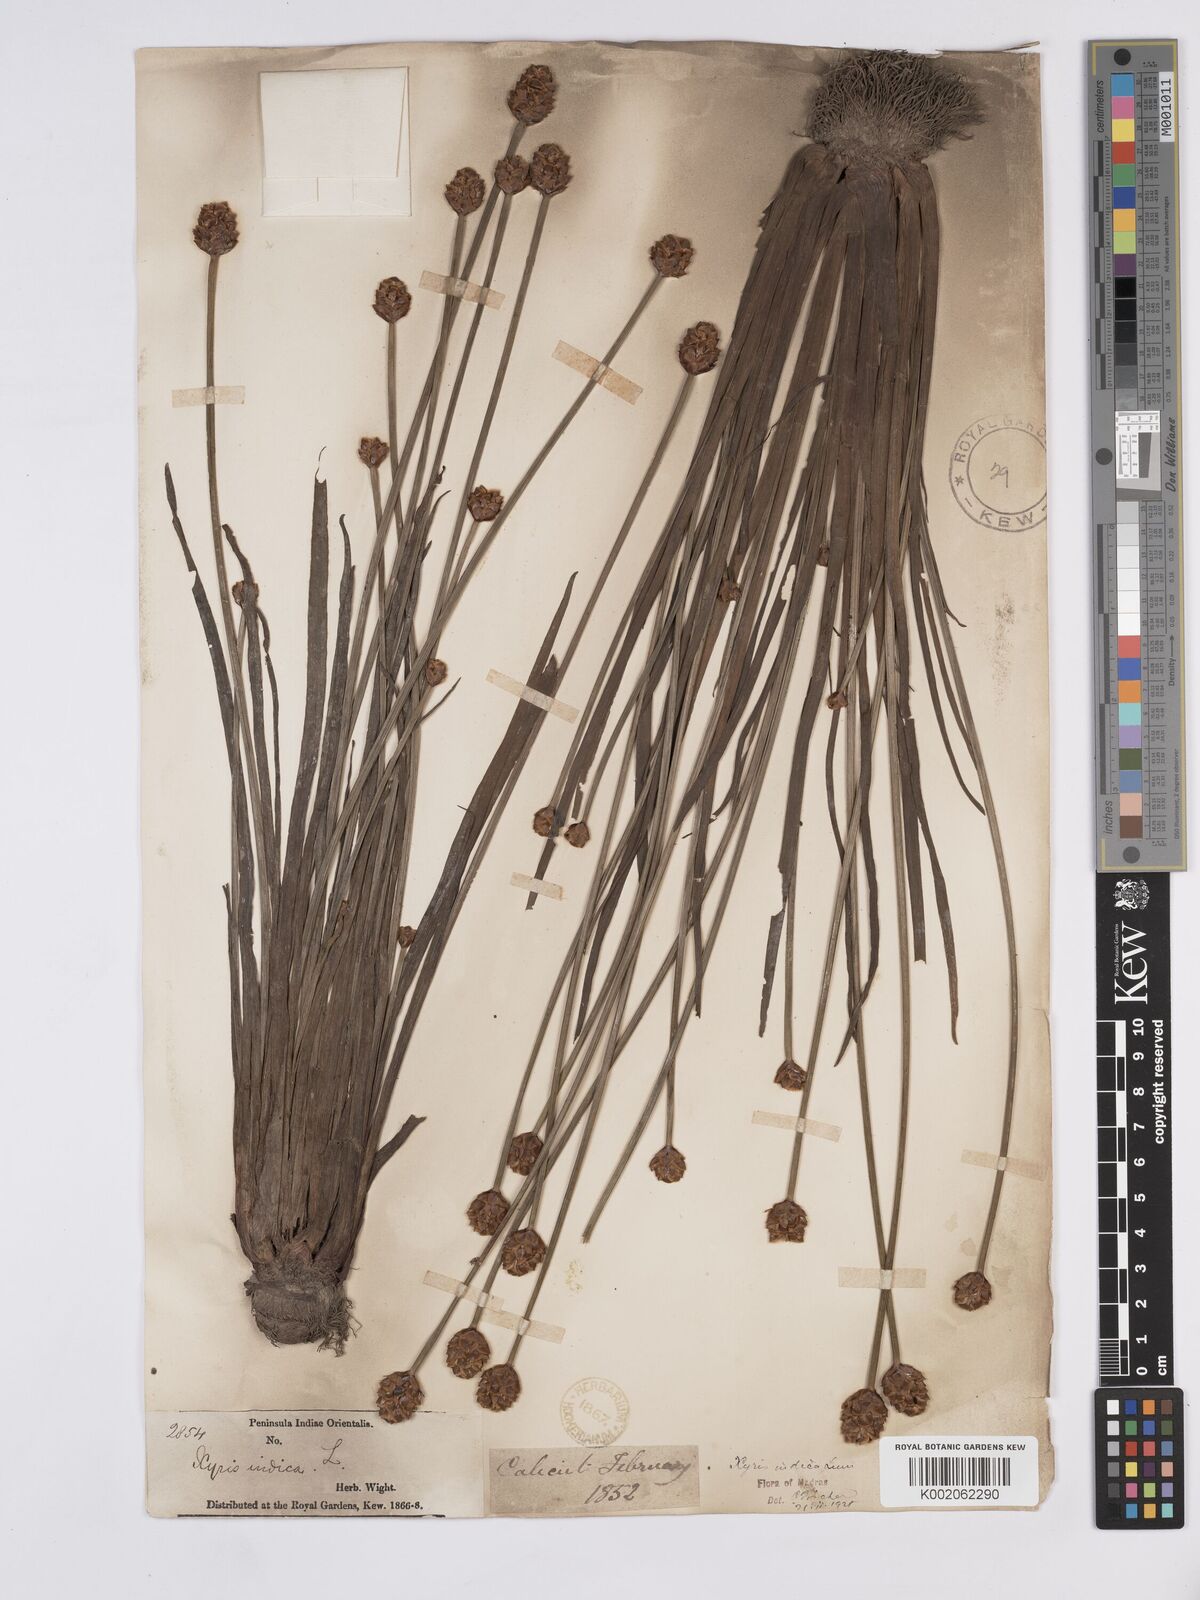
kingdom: Plantae
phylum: Tracheophyta
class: Liliopsida
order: Poales
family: Xyridaceae
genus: Xyris
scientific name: Xyris indica
